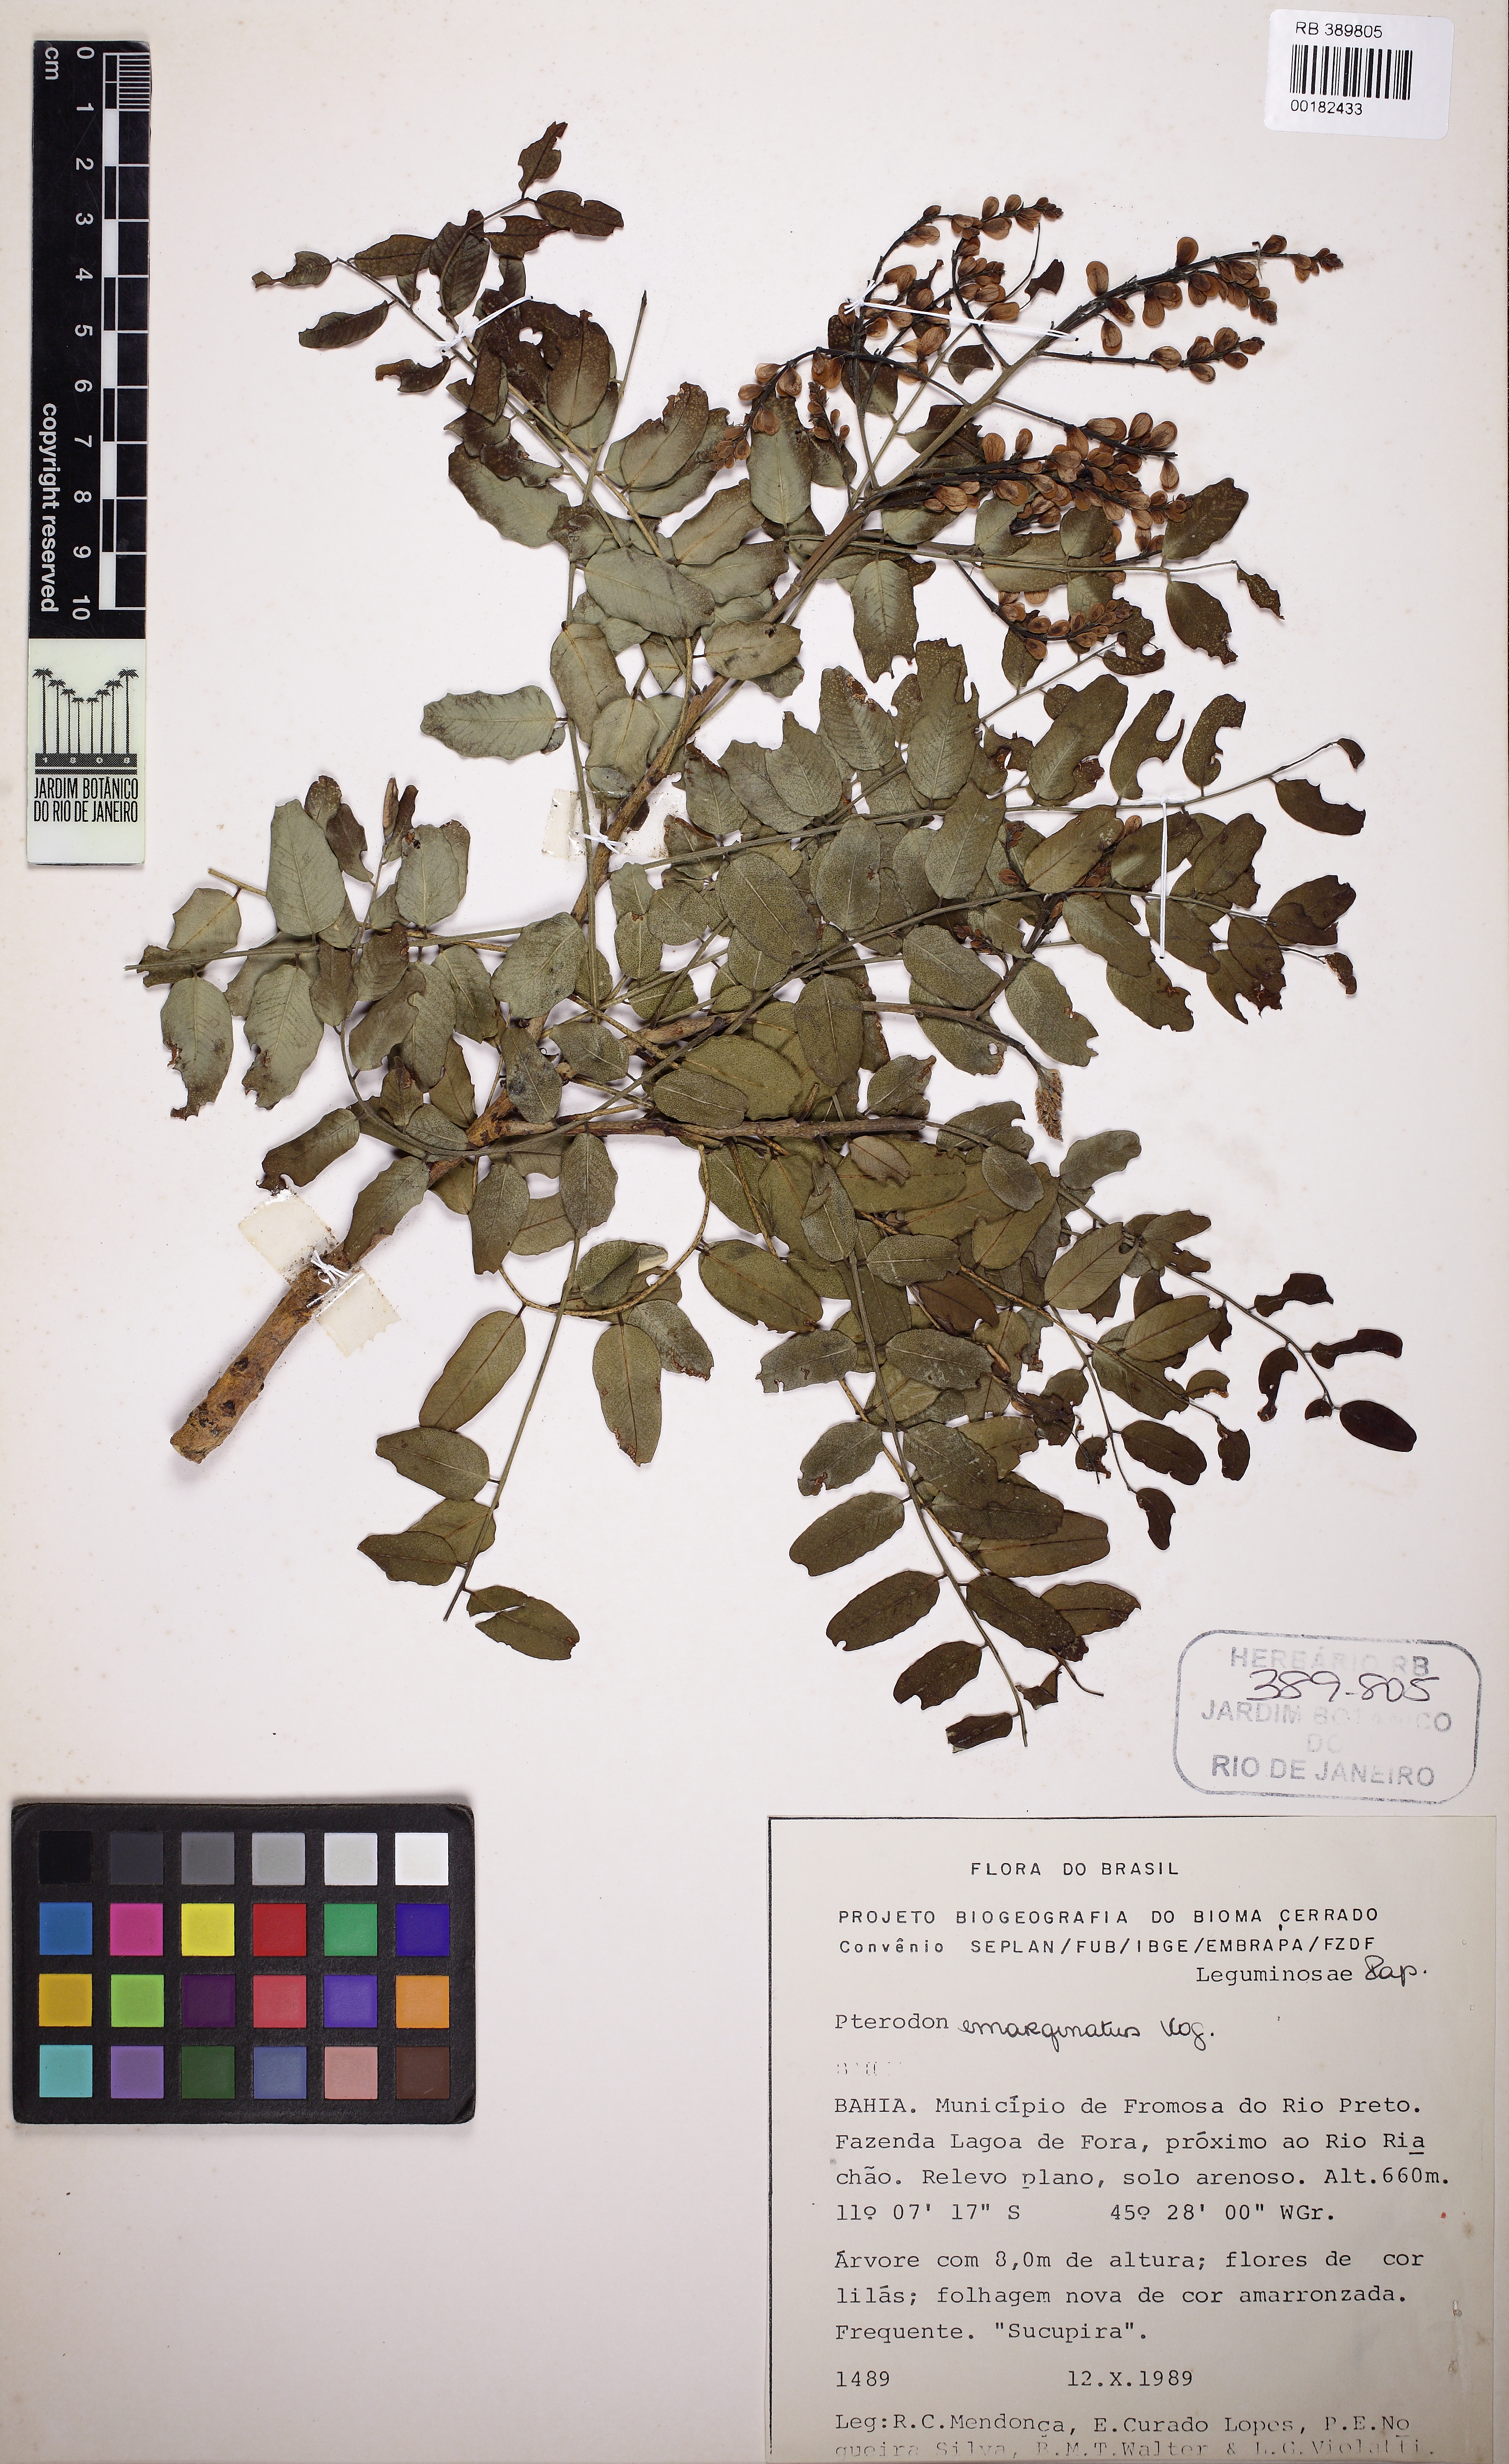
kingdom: Plantae
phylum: Tracheophyta
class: Magnoliopsida
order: Fabales
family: Fabaceae
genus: Pterodon
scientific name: Pterodon emarginatus
